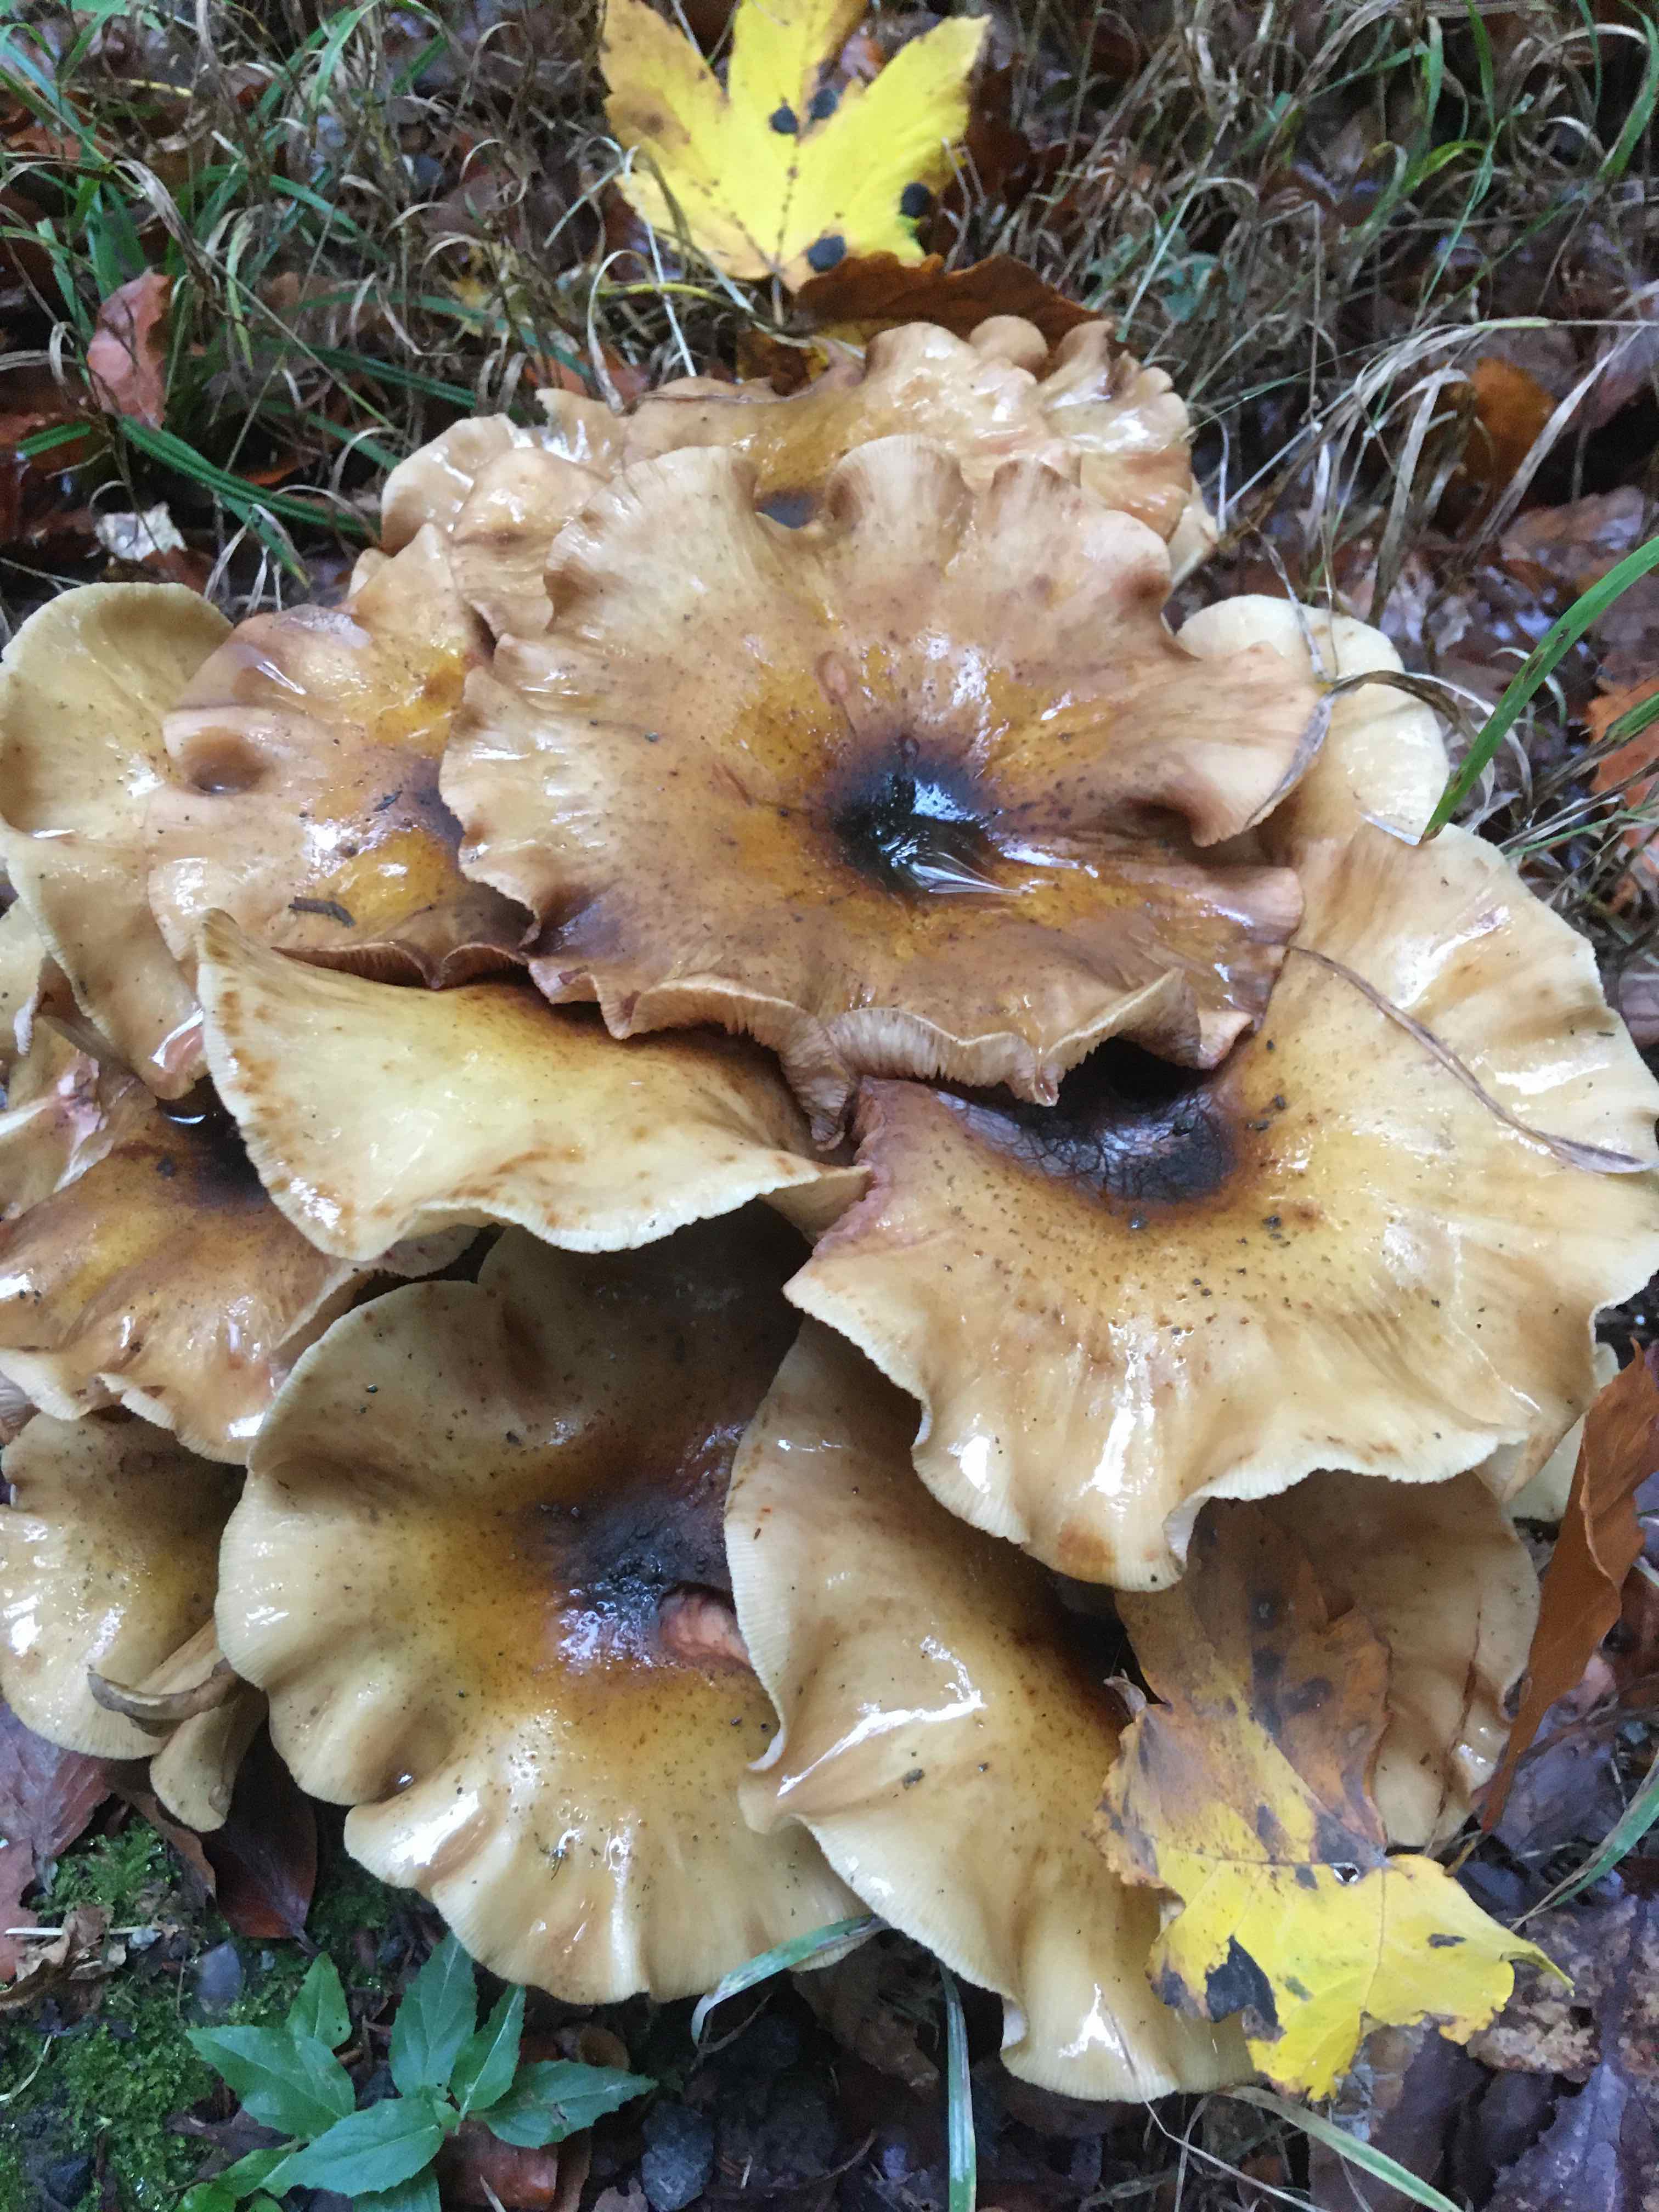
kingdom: Fungi
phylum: Basidiomycota
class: Agaricomycetes
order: Agaricales
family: Physalacriaceae
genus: Armillaria
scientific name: Armillaria mellea
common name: ægte honningsvamp
